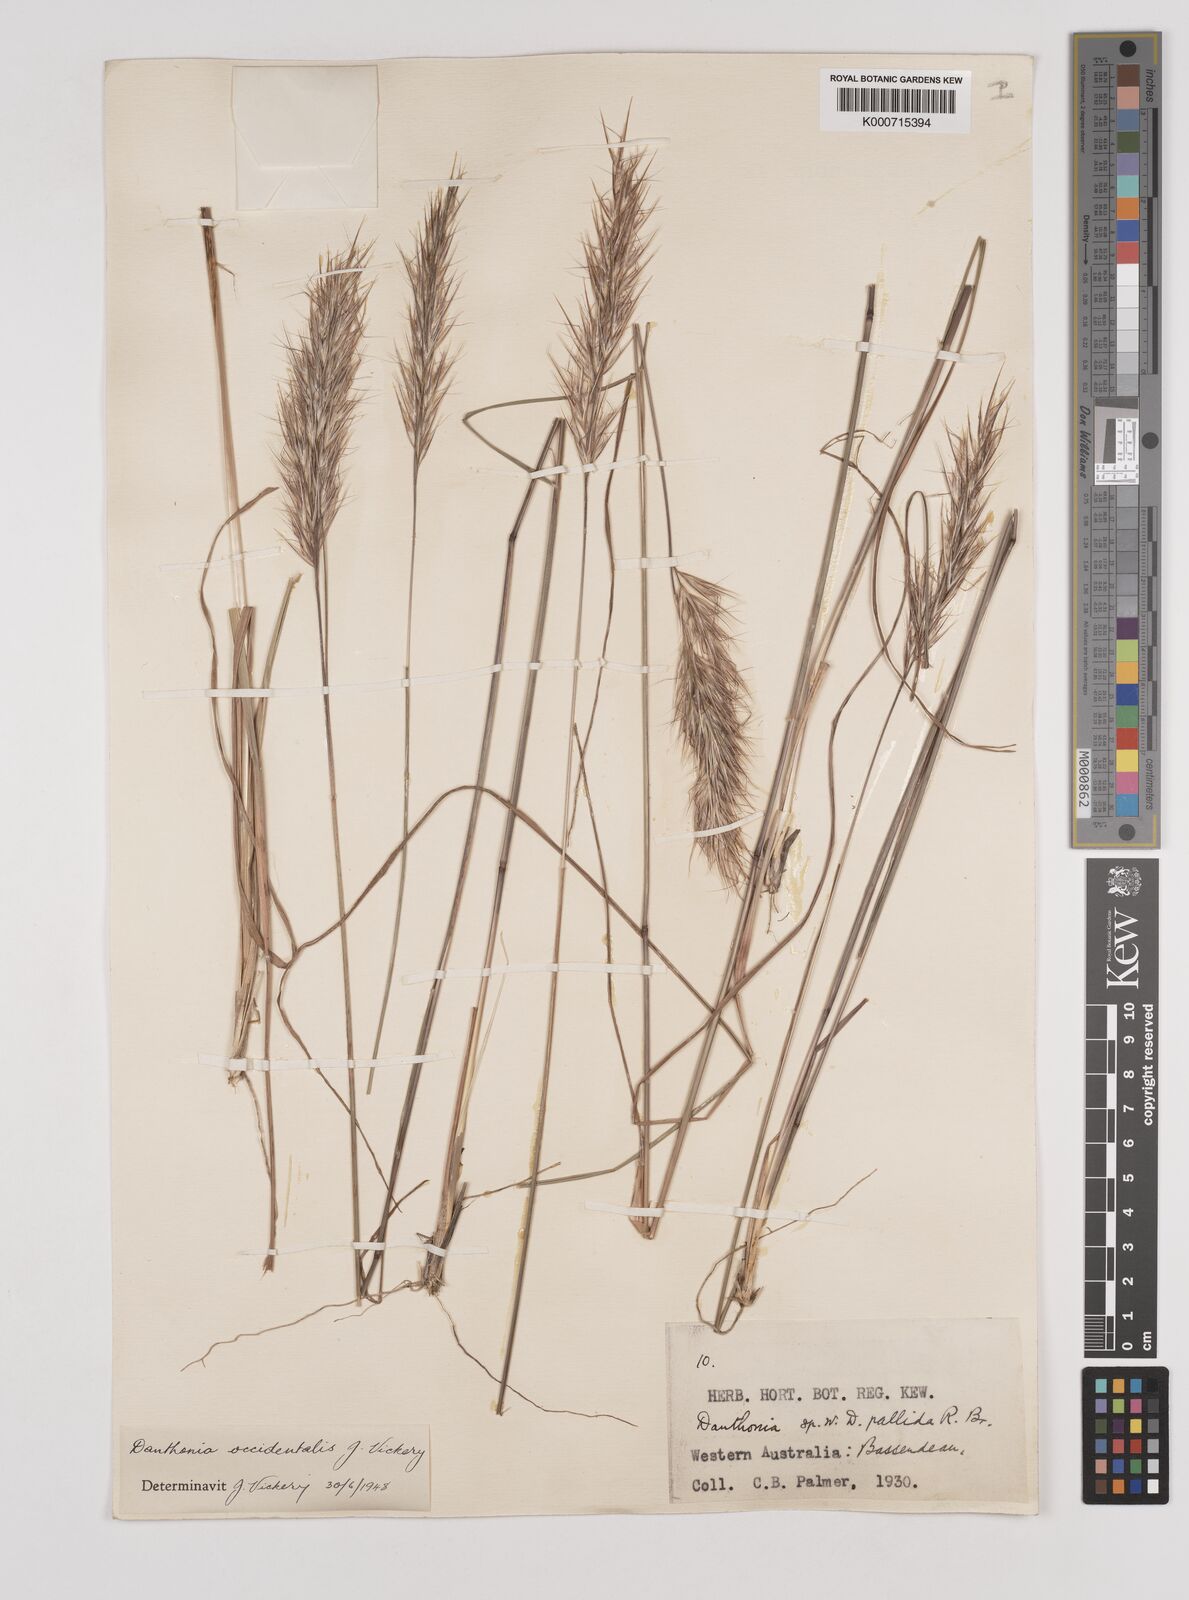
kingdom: Plantae
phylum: Tracheophyta
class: Liliopsida
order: Poales
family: Poaceae
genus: Rytidosperma
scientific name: Rytidosperma occidentale
